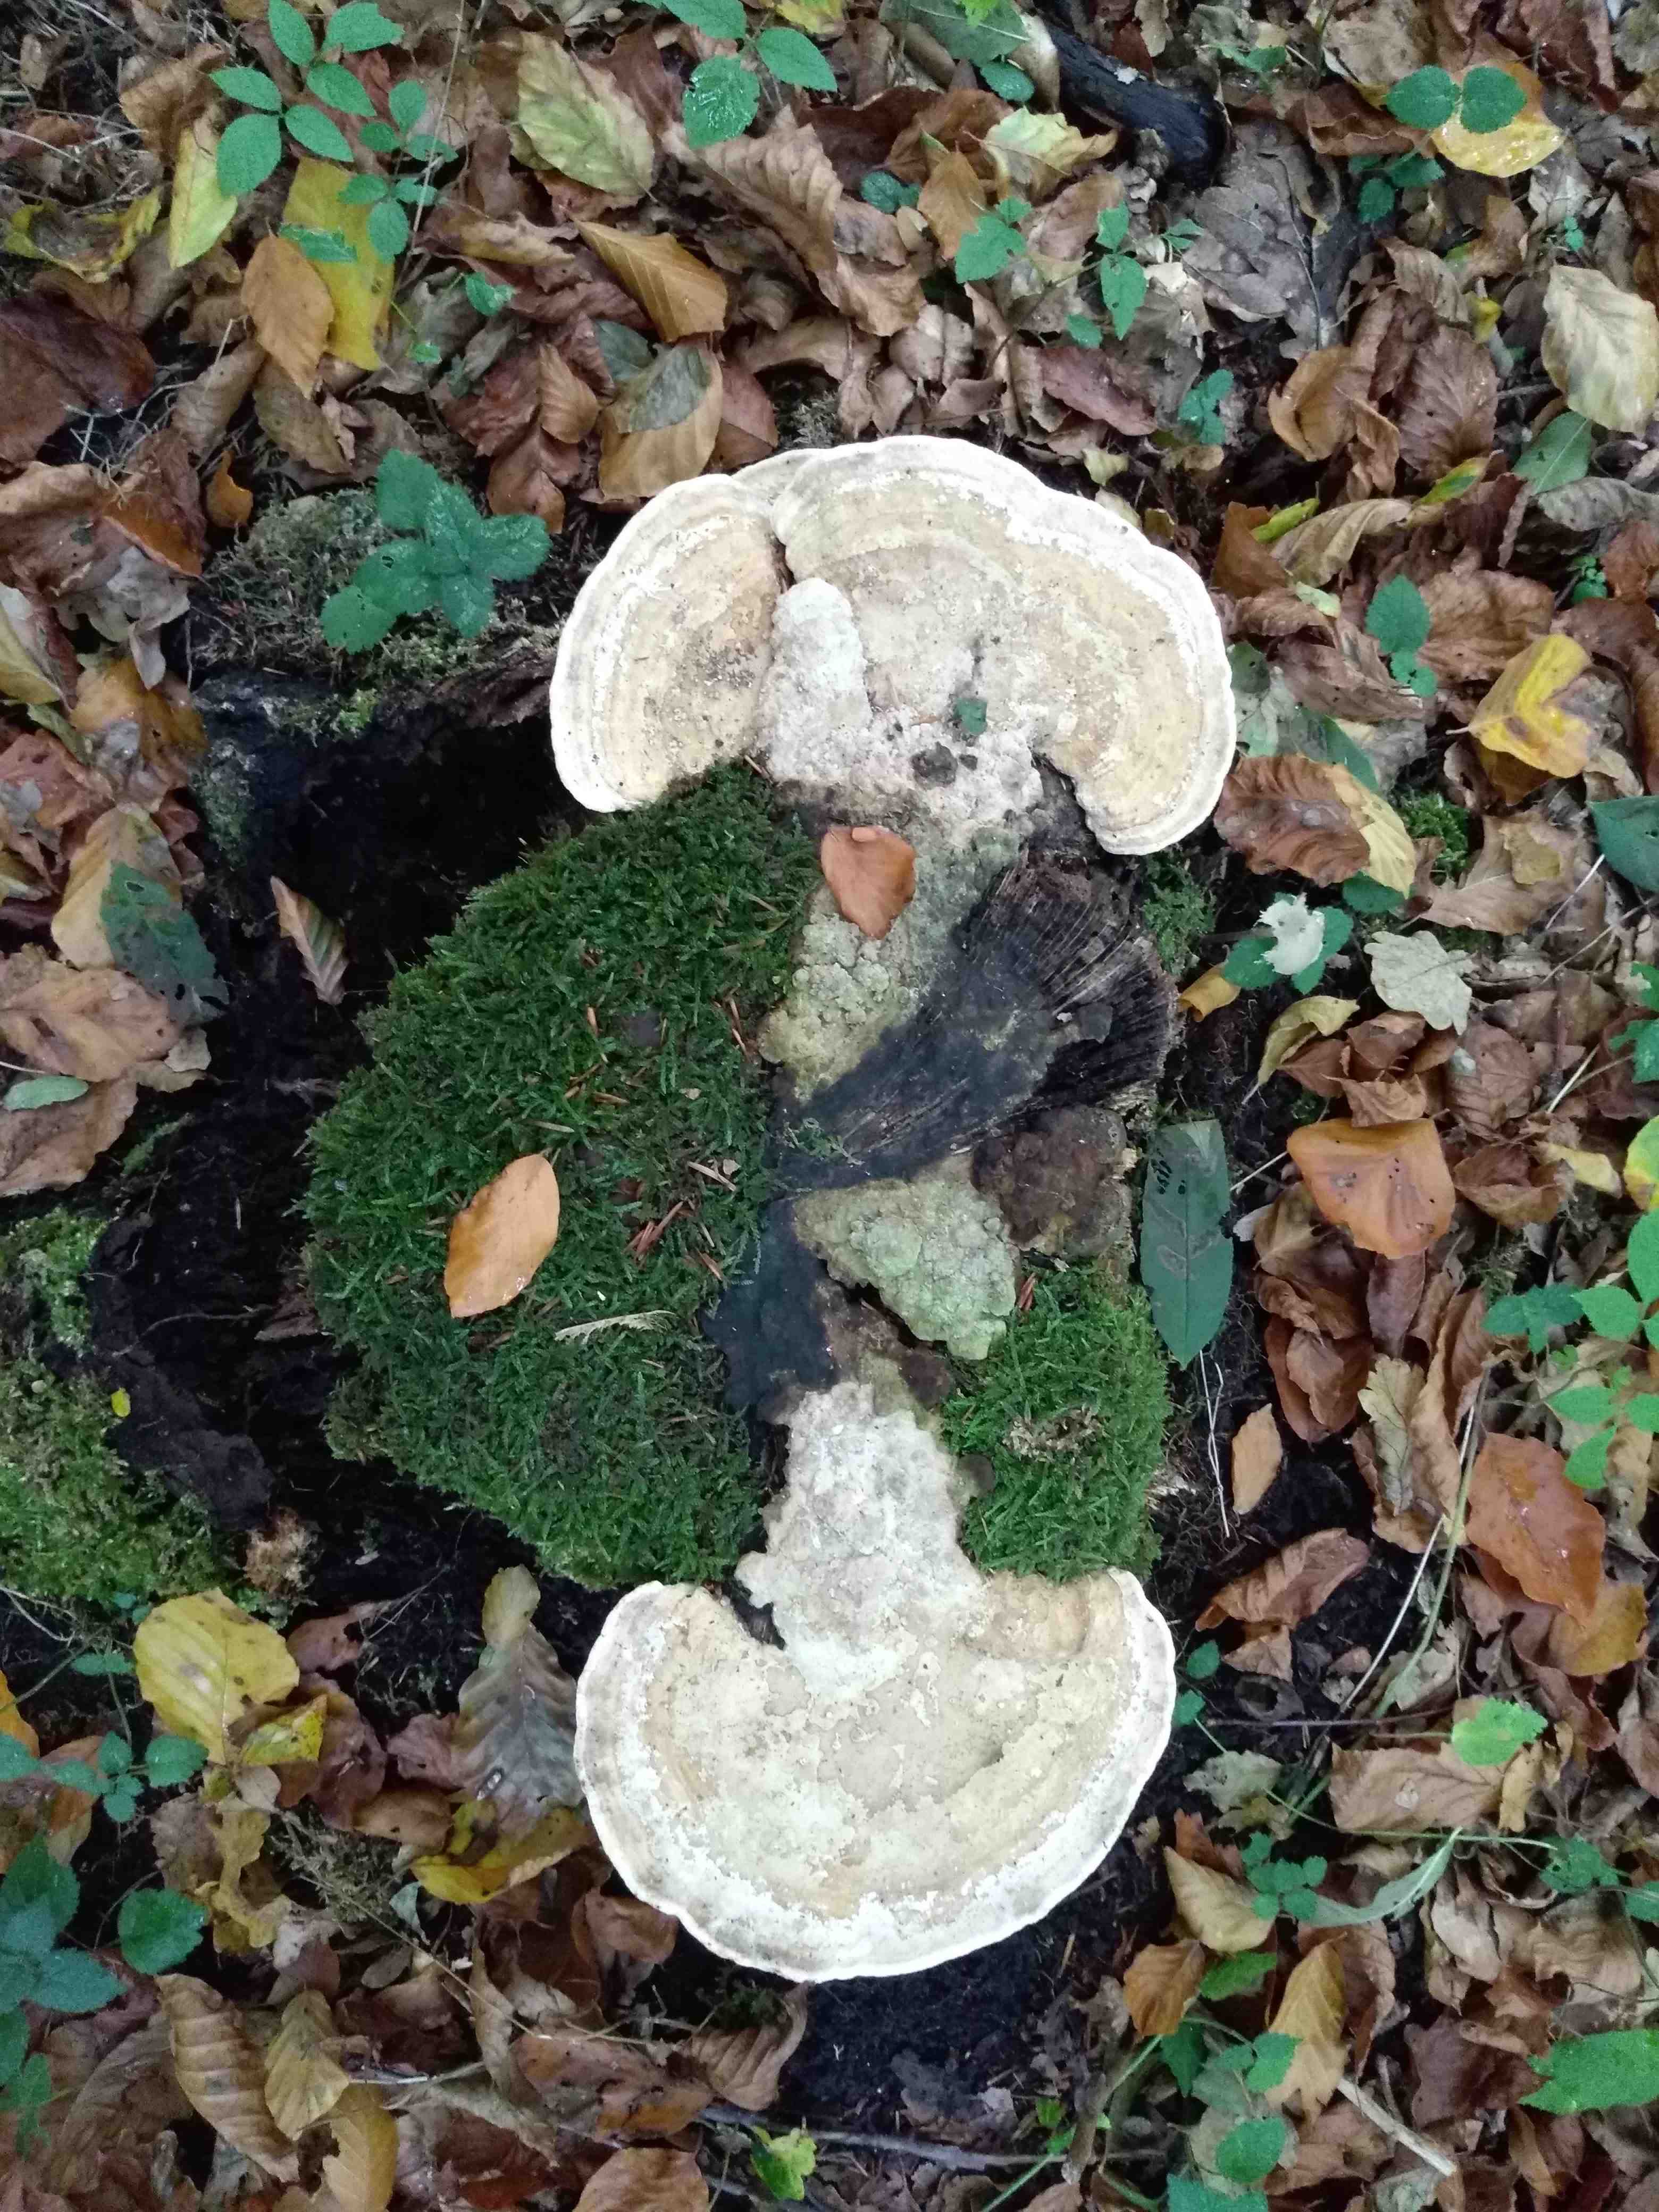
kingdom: Fungi
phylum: Basidiomycota
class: Agaricomycetes
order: Polyporales
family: Polyporaceae
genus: Trametes
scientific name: Trametes gibbosa
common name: puklet læderporesvamp
